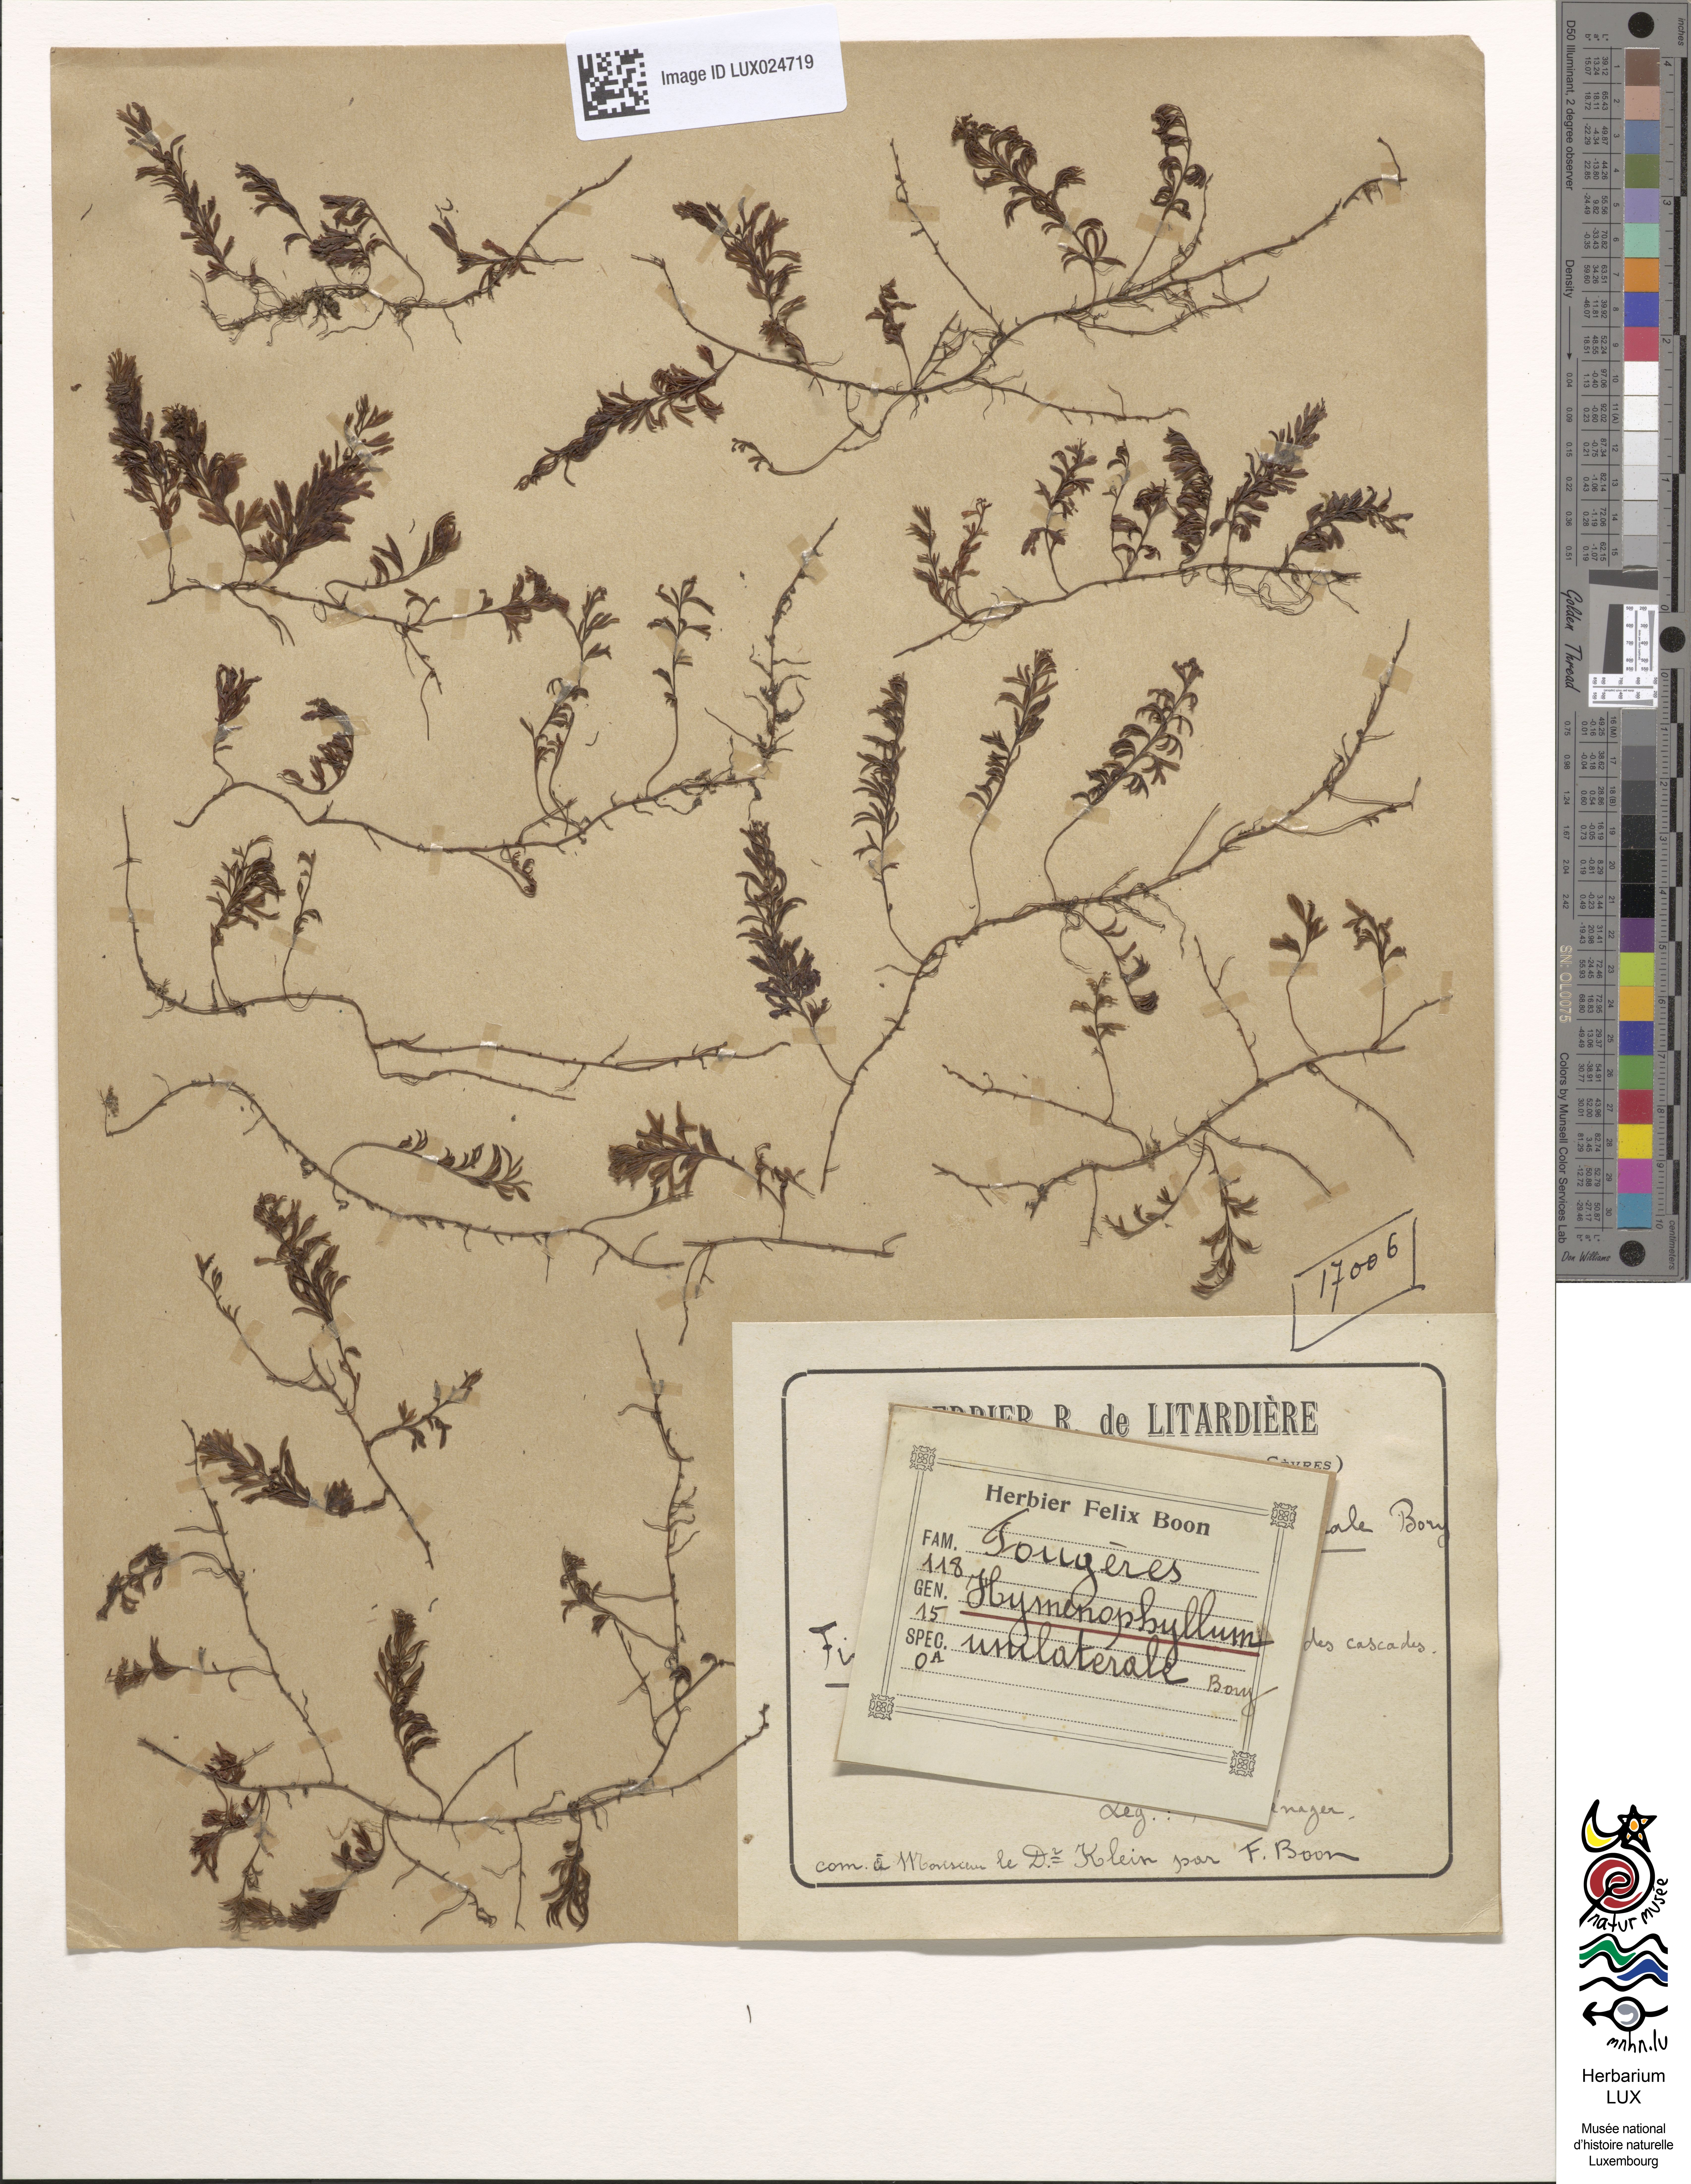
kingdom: Plantae
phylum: Tracheophyta
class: Polypodiopsida
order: Hymenophyllales
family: Hymenophyllaceae
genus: Hymenophyllum
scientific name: Hymenophyllum wilsonii
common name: Wilson's filmy fern
